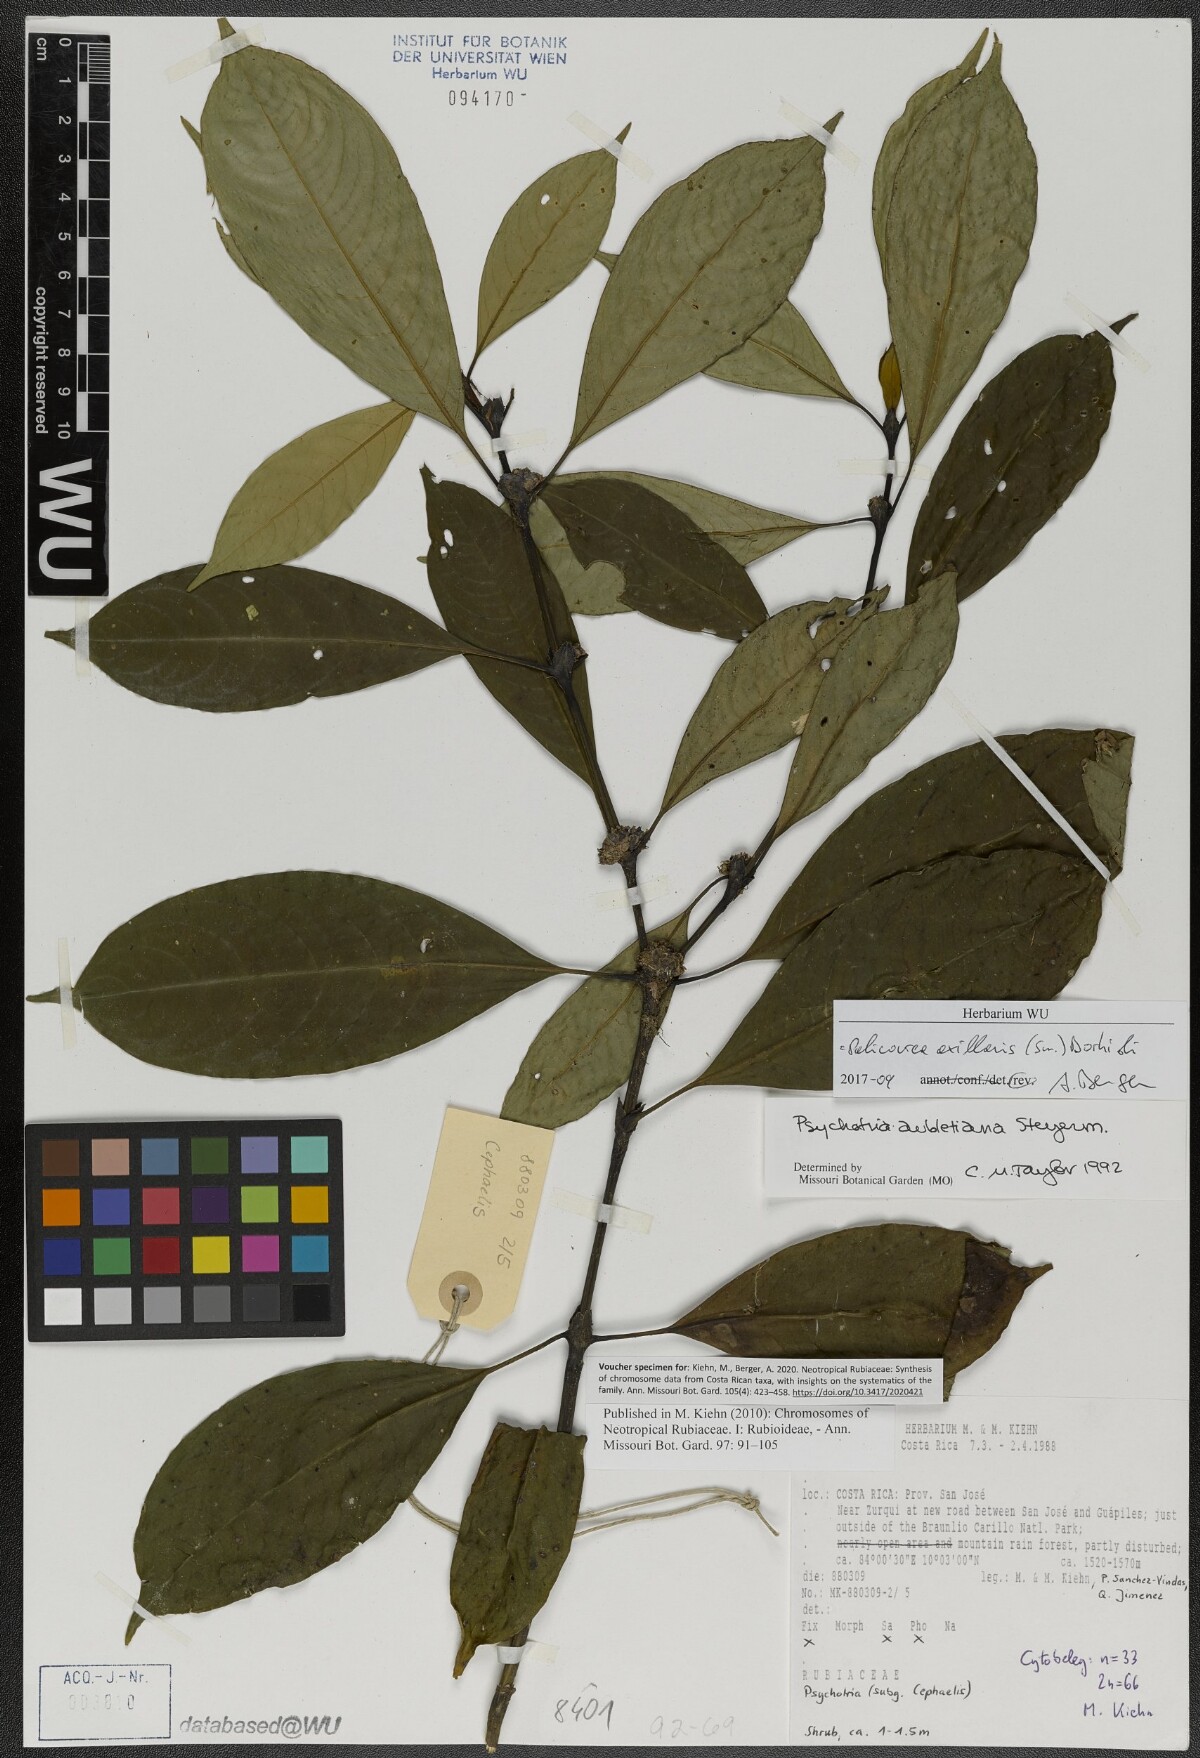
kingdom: Plantae
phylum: Tracheophyta
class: Magnoliopsida
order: Gentianales
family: Rubiaceae
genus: Palicourea
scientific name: Palicourea axillaris
